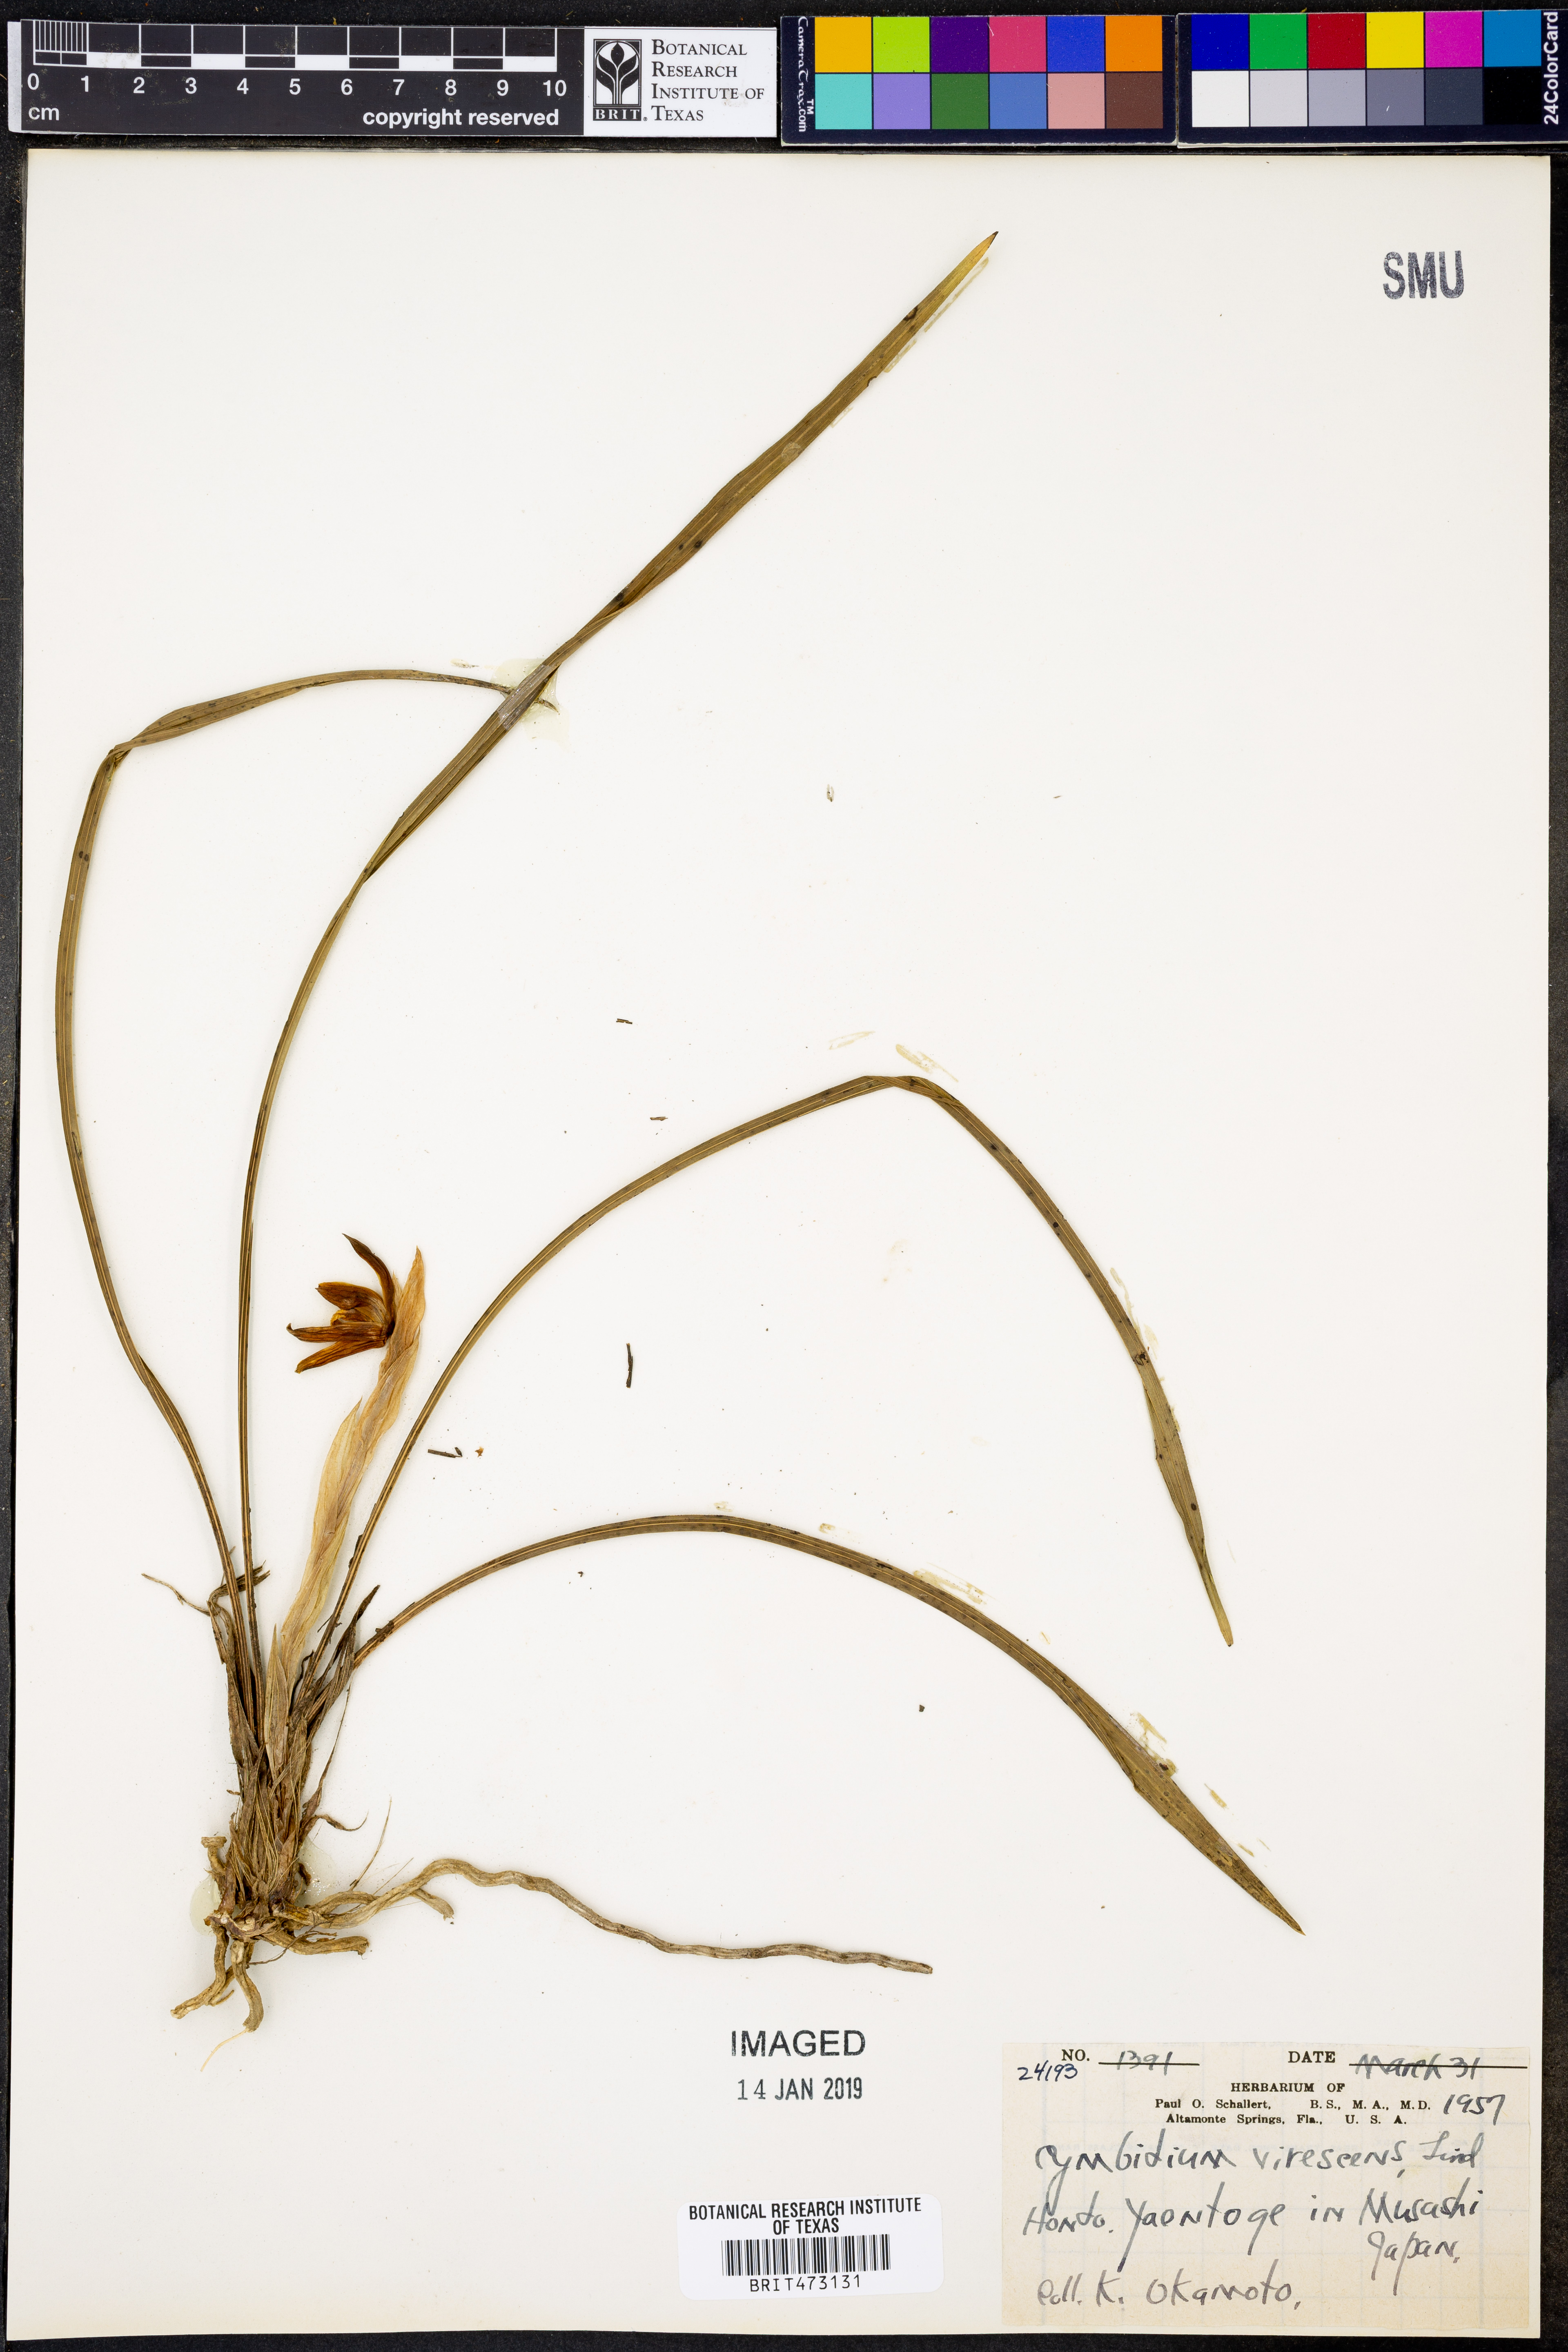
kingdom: Plantae
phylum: Tracheophyta
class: Liliopsida
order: Asparagales
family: Orchidaceae
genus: Chloraea
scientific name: Chloraea piquichen
